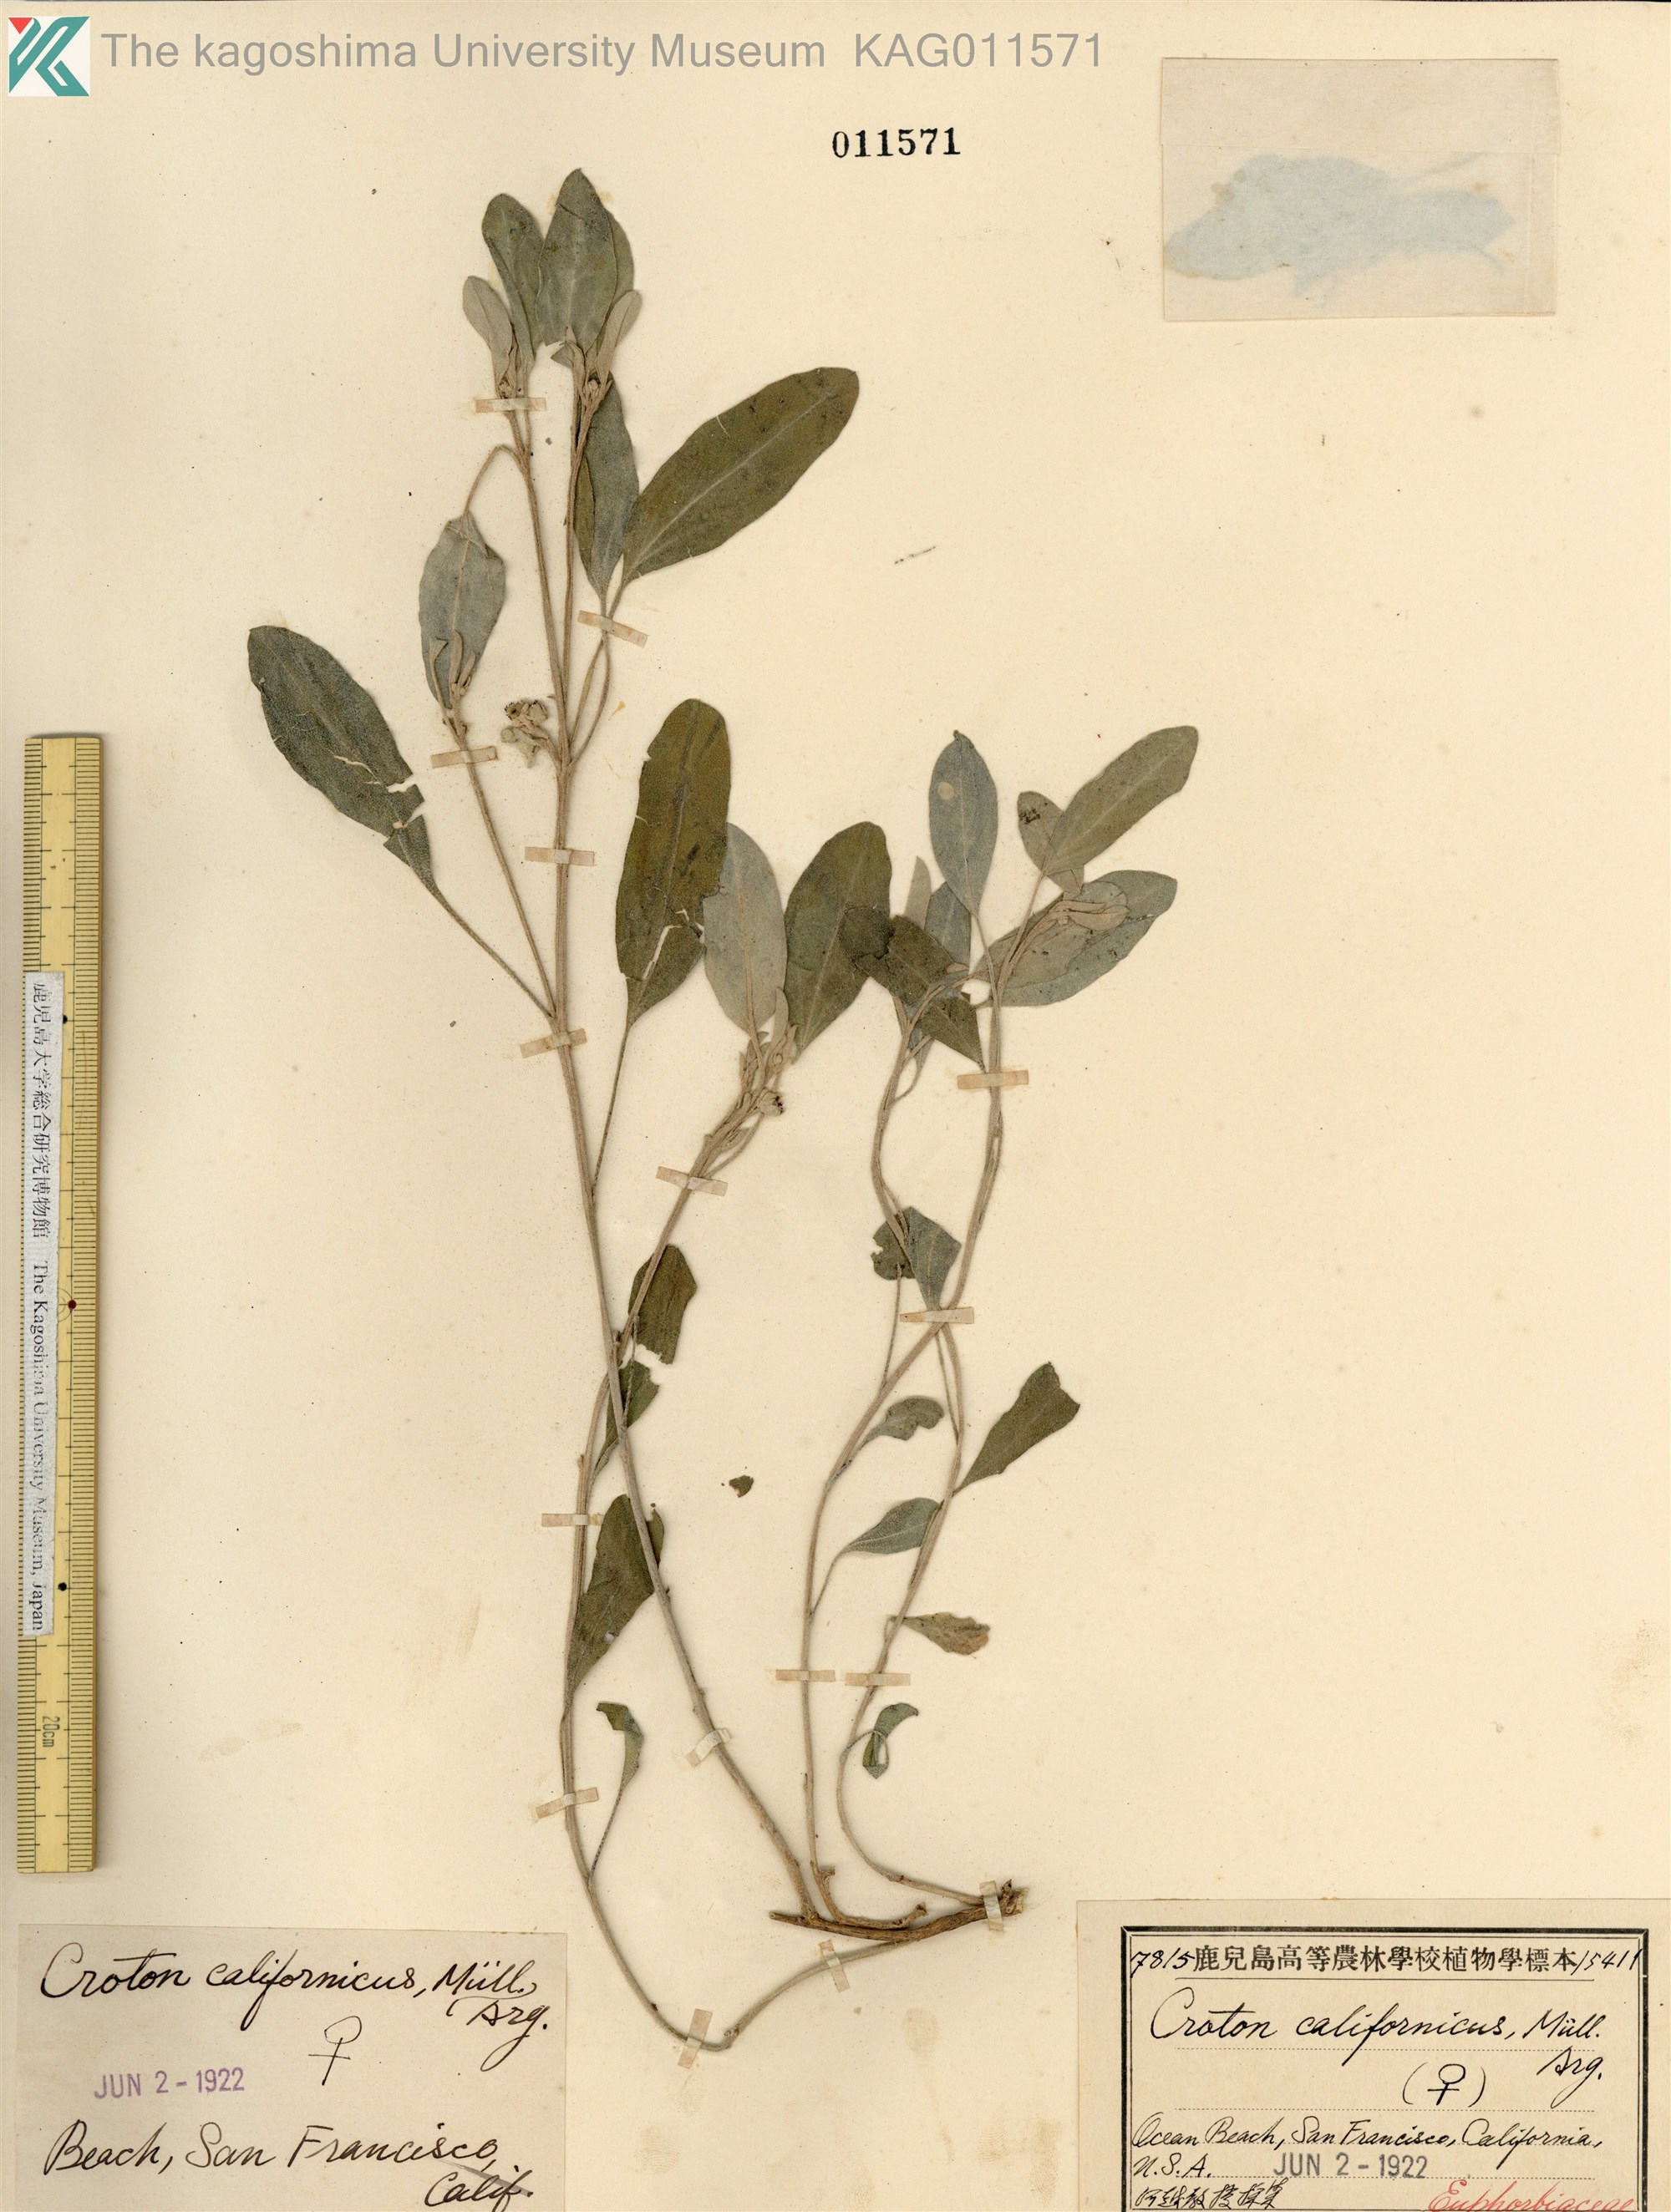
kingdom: Plantae
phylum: Tracheophyta
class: Magnoliopsida
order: Malpighiales
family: Euphorbiaceae
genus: Croton
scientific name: Croton californicus
